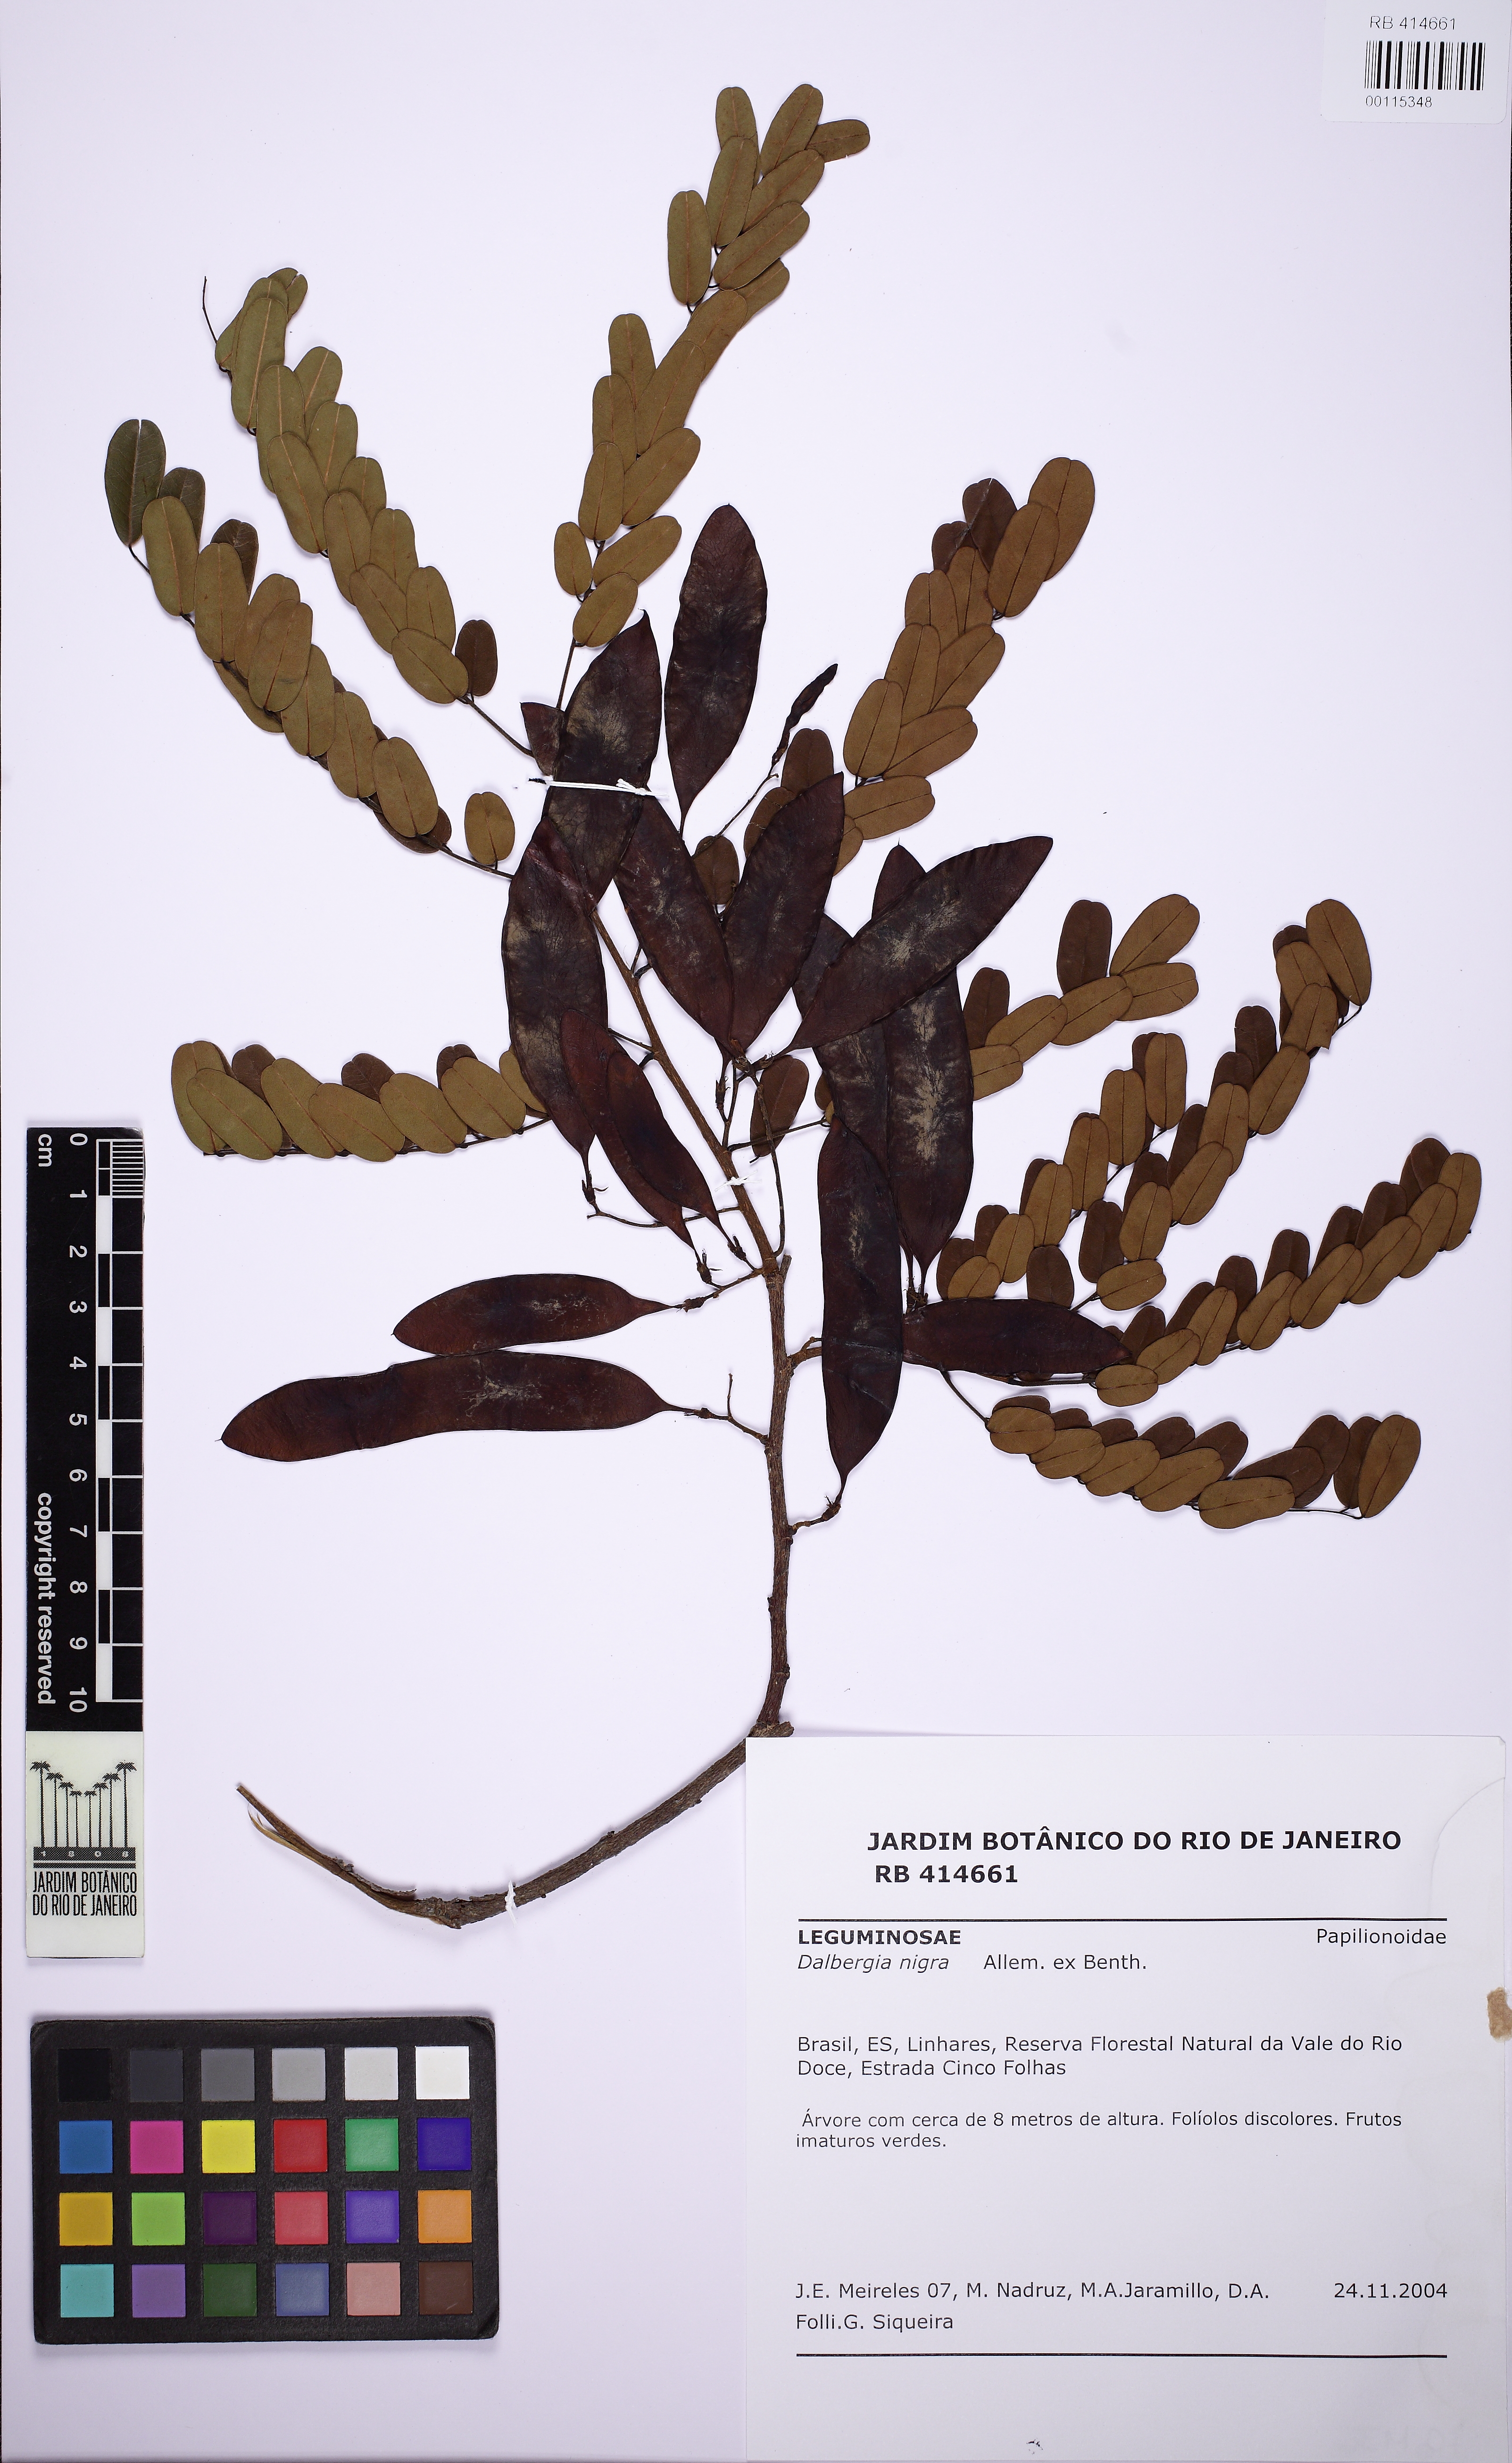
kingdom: Plantae
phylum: Tracheophyta
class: Magnoliopsida
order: Fabales
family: Fabaceae
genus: Dalbergia
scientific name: Dalbergia nigra
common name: Bahia rosewood
